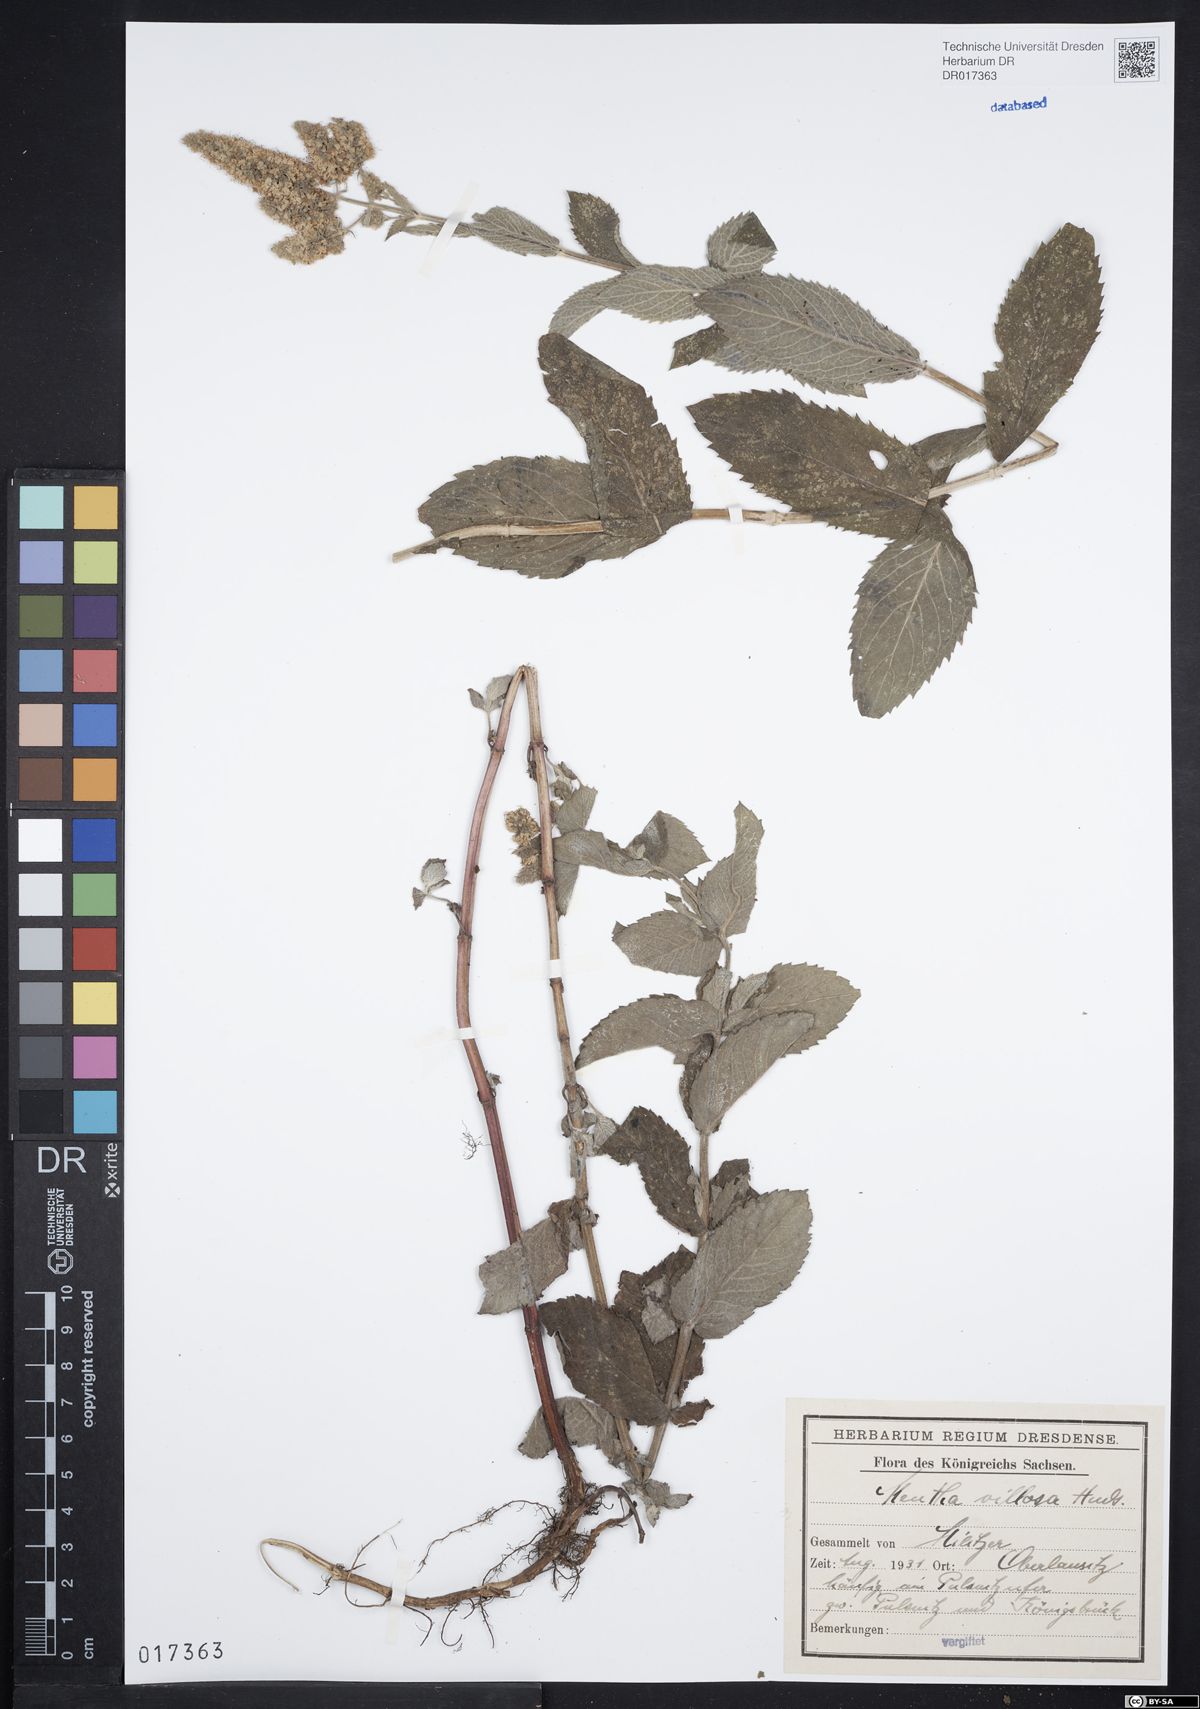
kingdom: Plantae
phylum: Tracheophyta
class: Magnoliopsida
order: Lamiales
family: Lamiaceae
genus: Mentha
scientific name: Mentha villosa
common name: Apple mint
